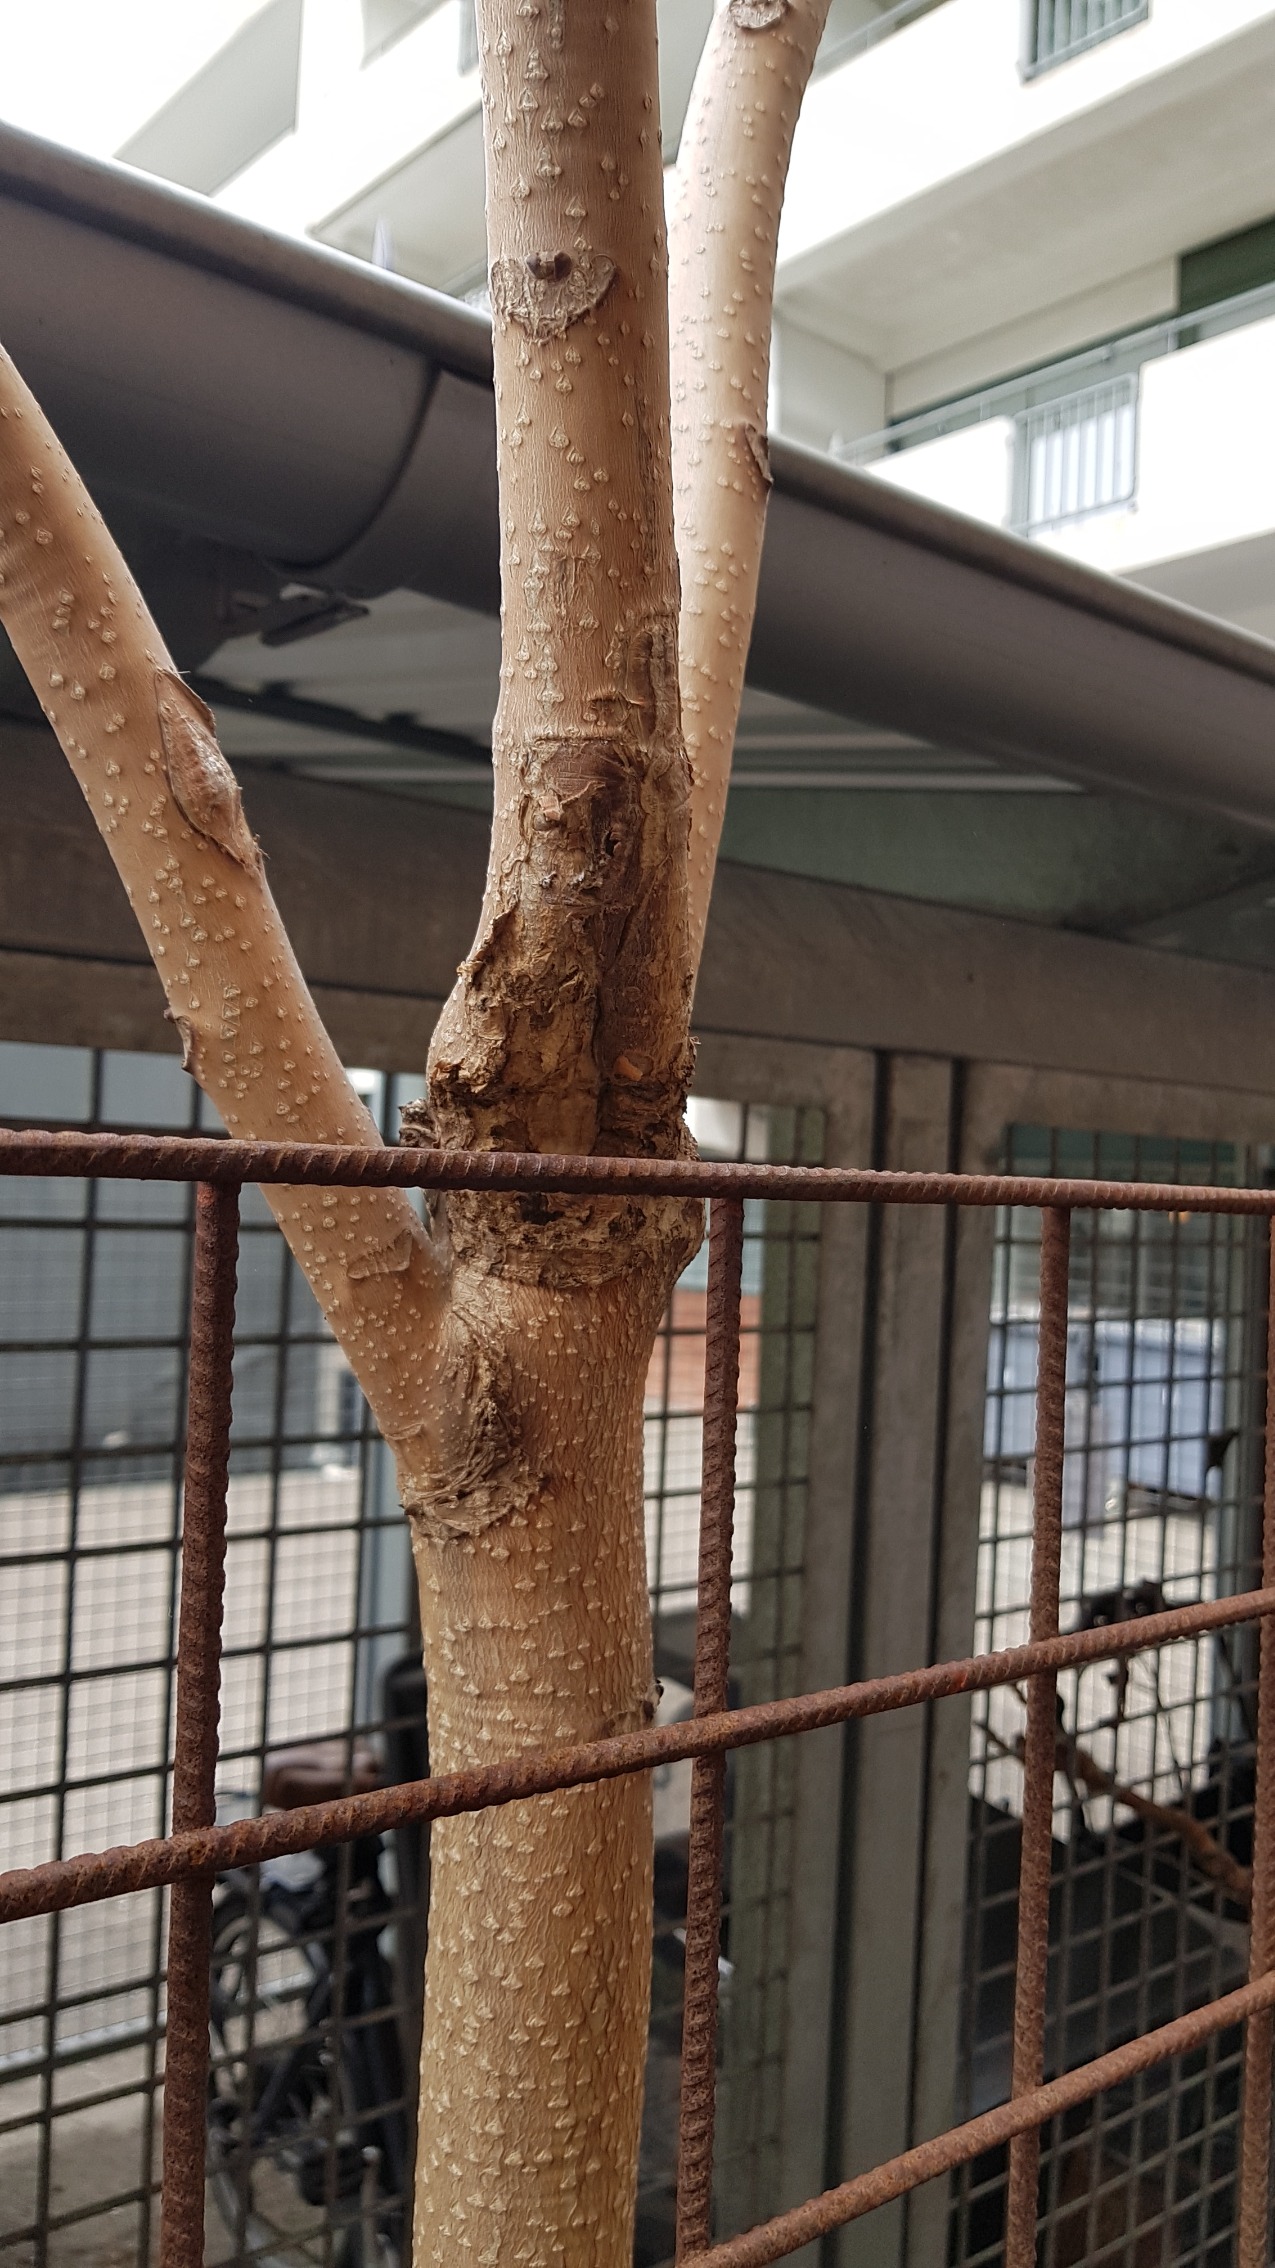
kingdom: Plantae
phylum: Tracheophyta
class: Magnoliopsida
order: Sapindales
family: Simaroubaceae
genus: Ailanthus
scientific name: Ailanthus altissima
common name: Skyrækker
